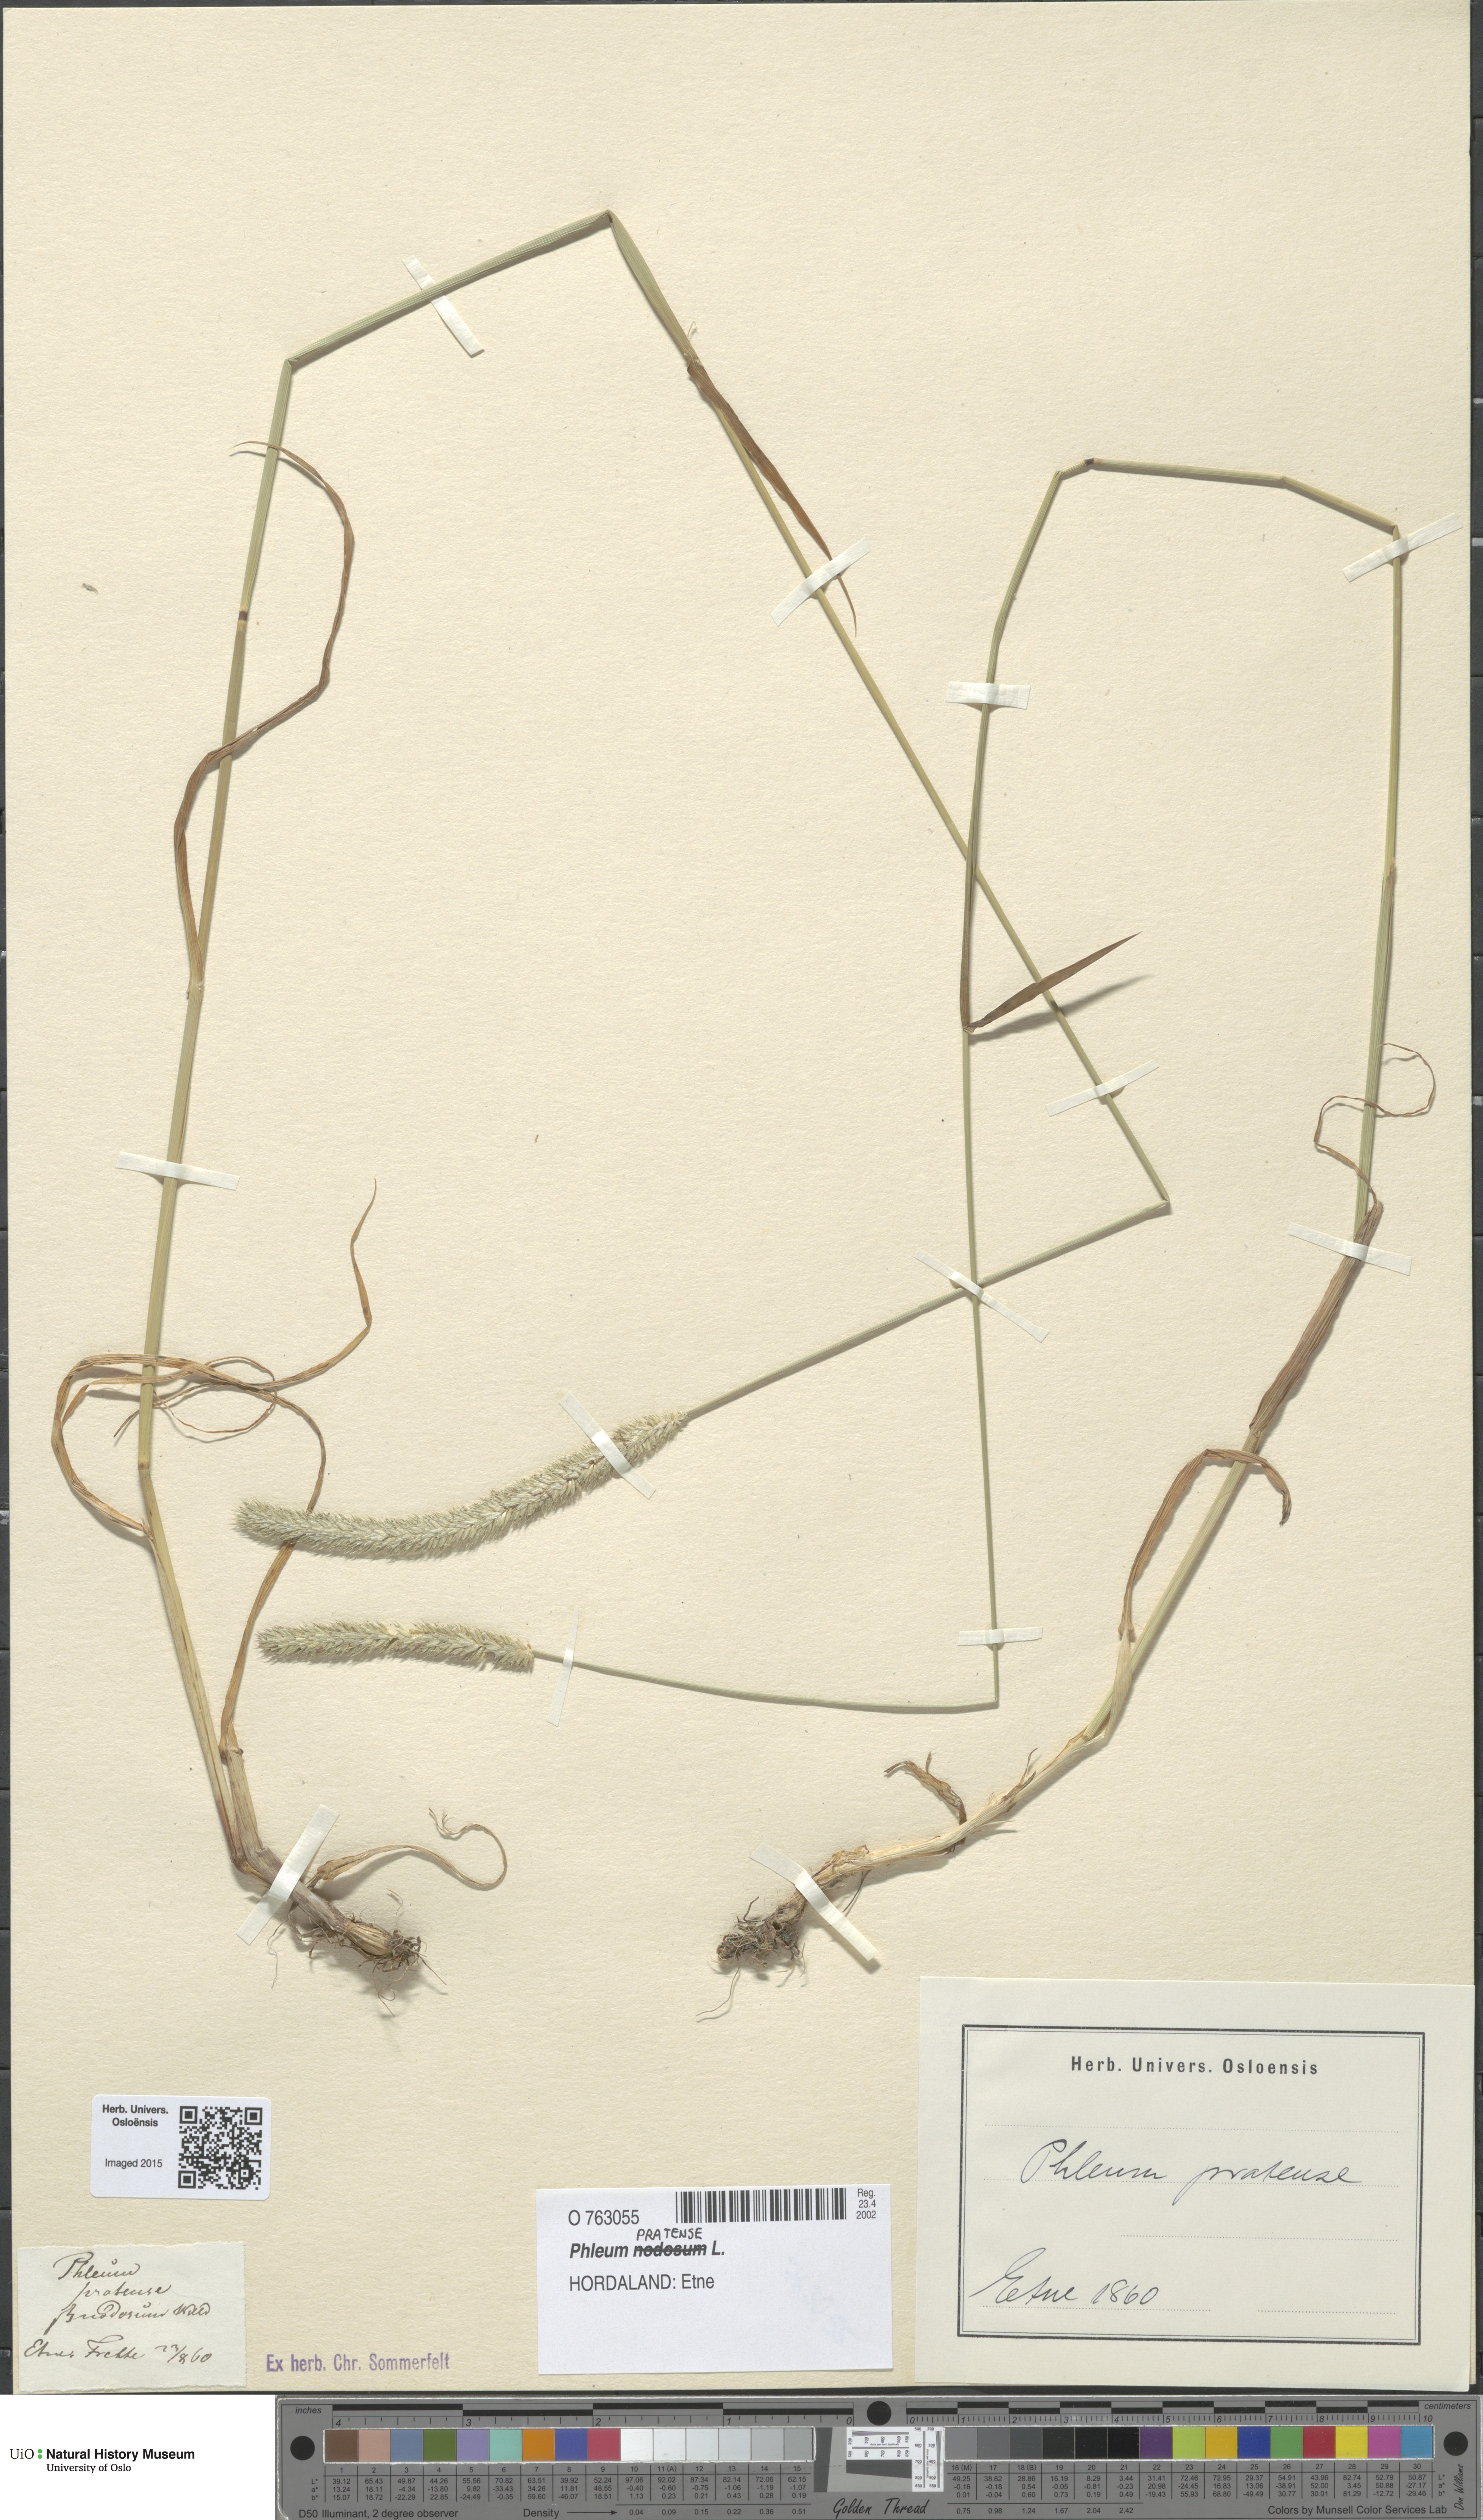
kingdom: Plantae
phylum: Tracheophyta
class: Liliopsida
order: Poales
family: Poaceae
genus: Phleum
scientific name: Phleum pratense
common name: Timothy grass
